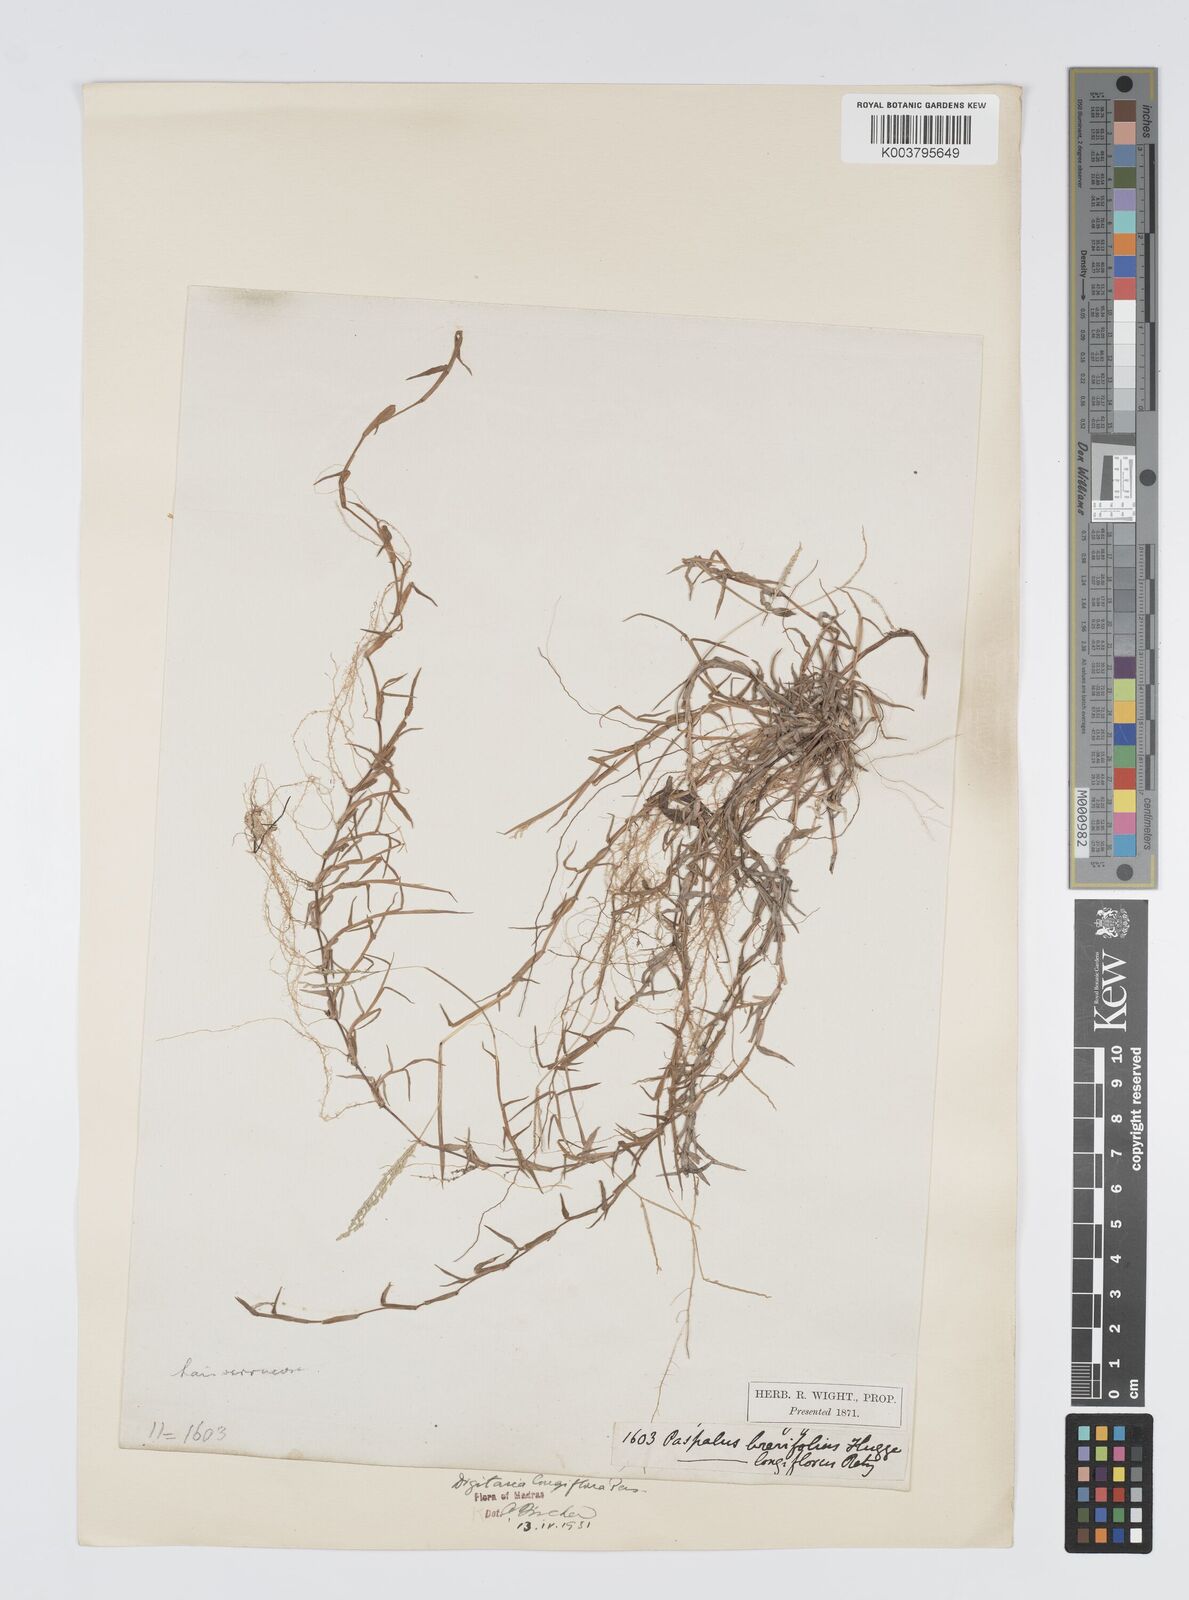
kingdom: Plantae
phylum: Tracheophyta
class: Liliopsida
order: Poales
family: Poaceae
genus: Digitaria
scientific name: Digitaria longiflora
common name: Wire crabgrass
